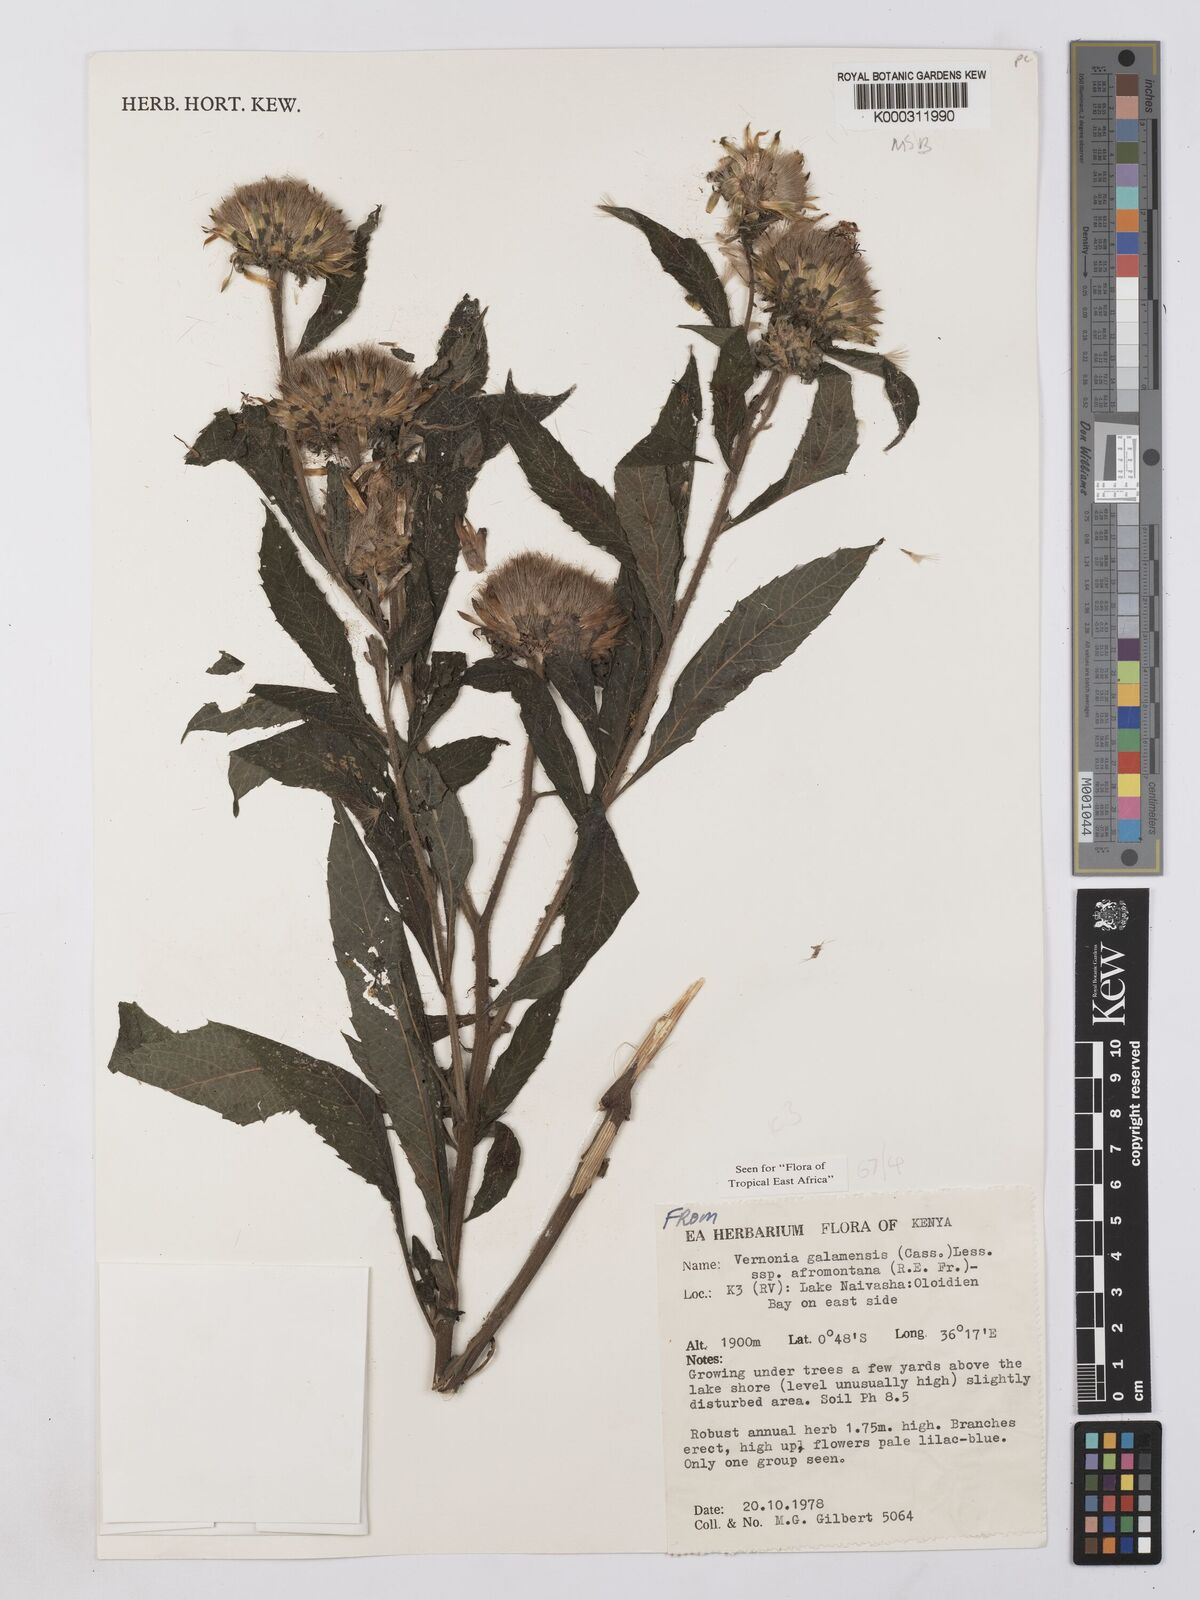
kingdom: Plantae
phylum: Tracheophyta
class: Magnoliopsida
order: Asterales
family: Asteraceae
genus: Vernonia
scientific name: Vernonia galamensis
